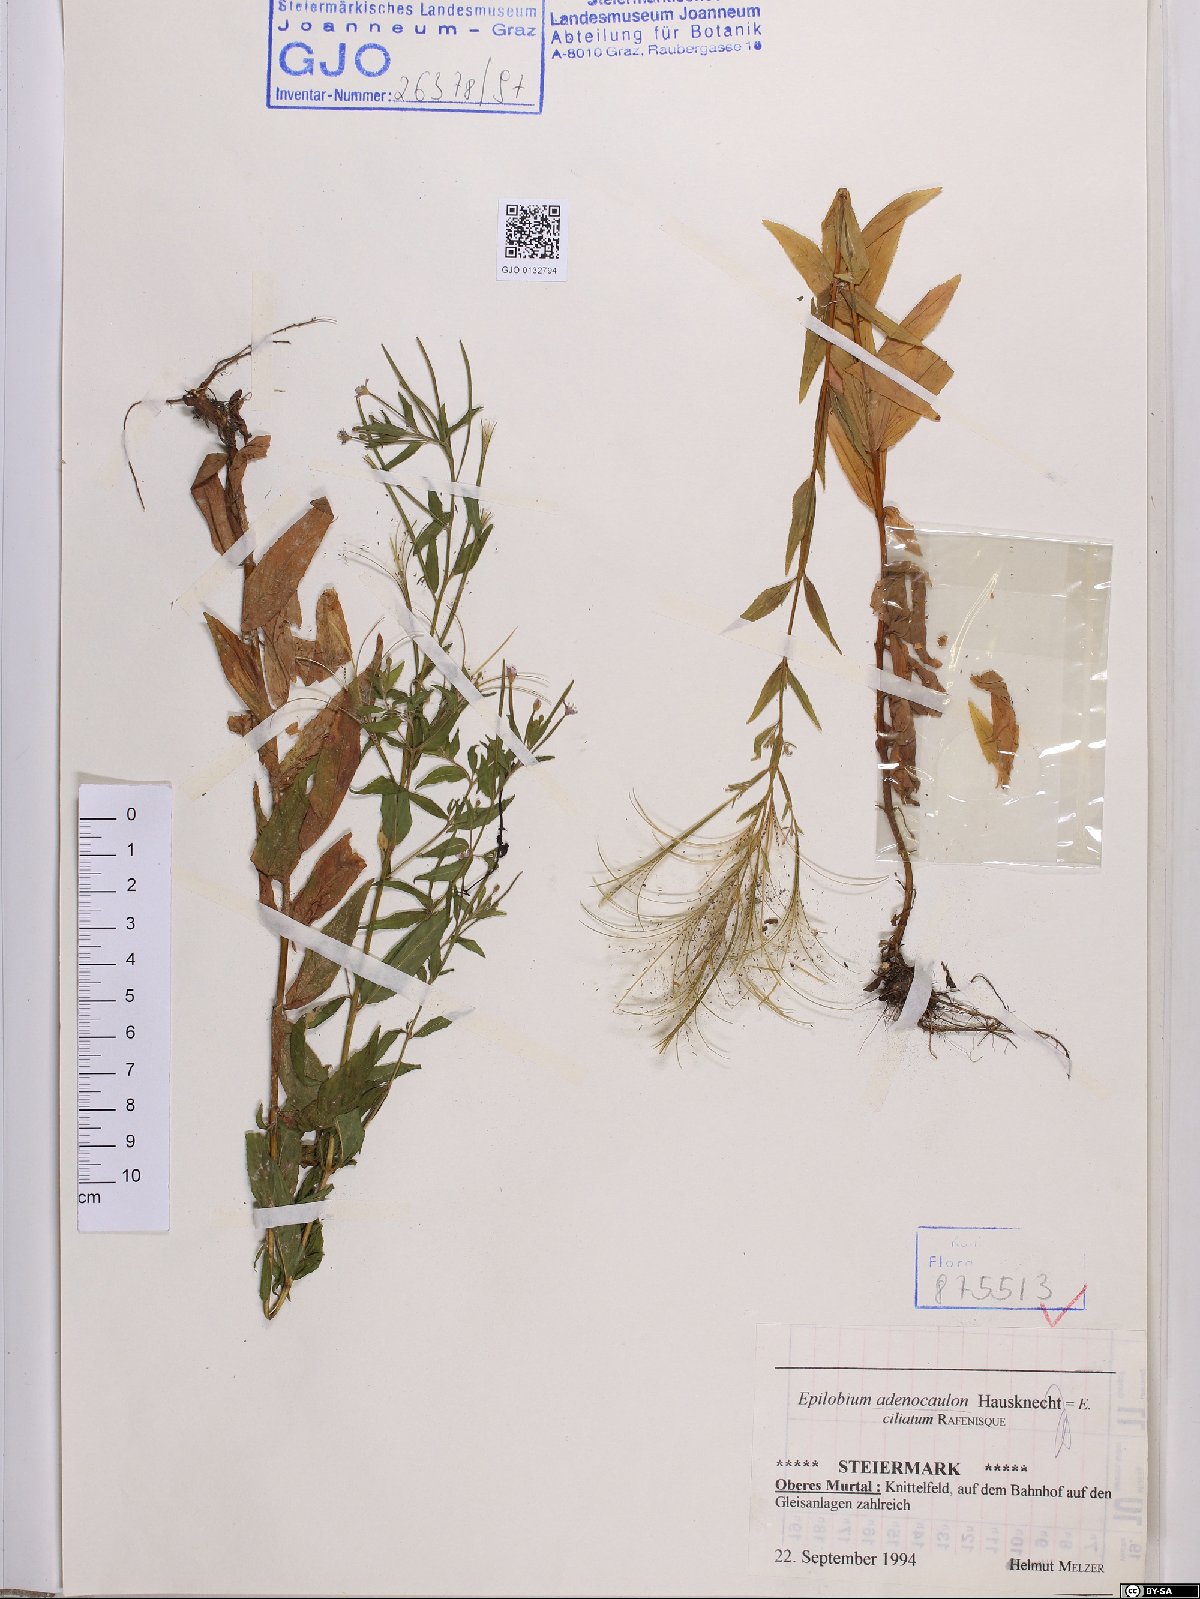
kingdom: Plantae
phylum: Tracheophyta
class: Magnoliopsida
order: Myrtales
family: Onagraceae
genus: Epilobium
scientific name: Epilobium ciliatum
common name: American willowherb
